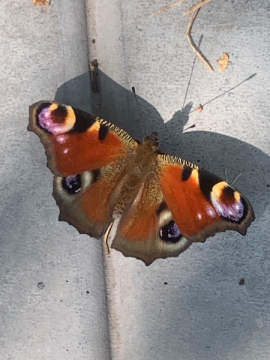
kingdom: Animalia
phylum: Arthropoda
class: Insecta
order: Lepidoptera
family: Nymphalidae
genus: Aglais
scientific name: Aglais io
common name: European Peacock
